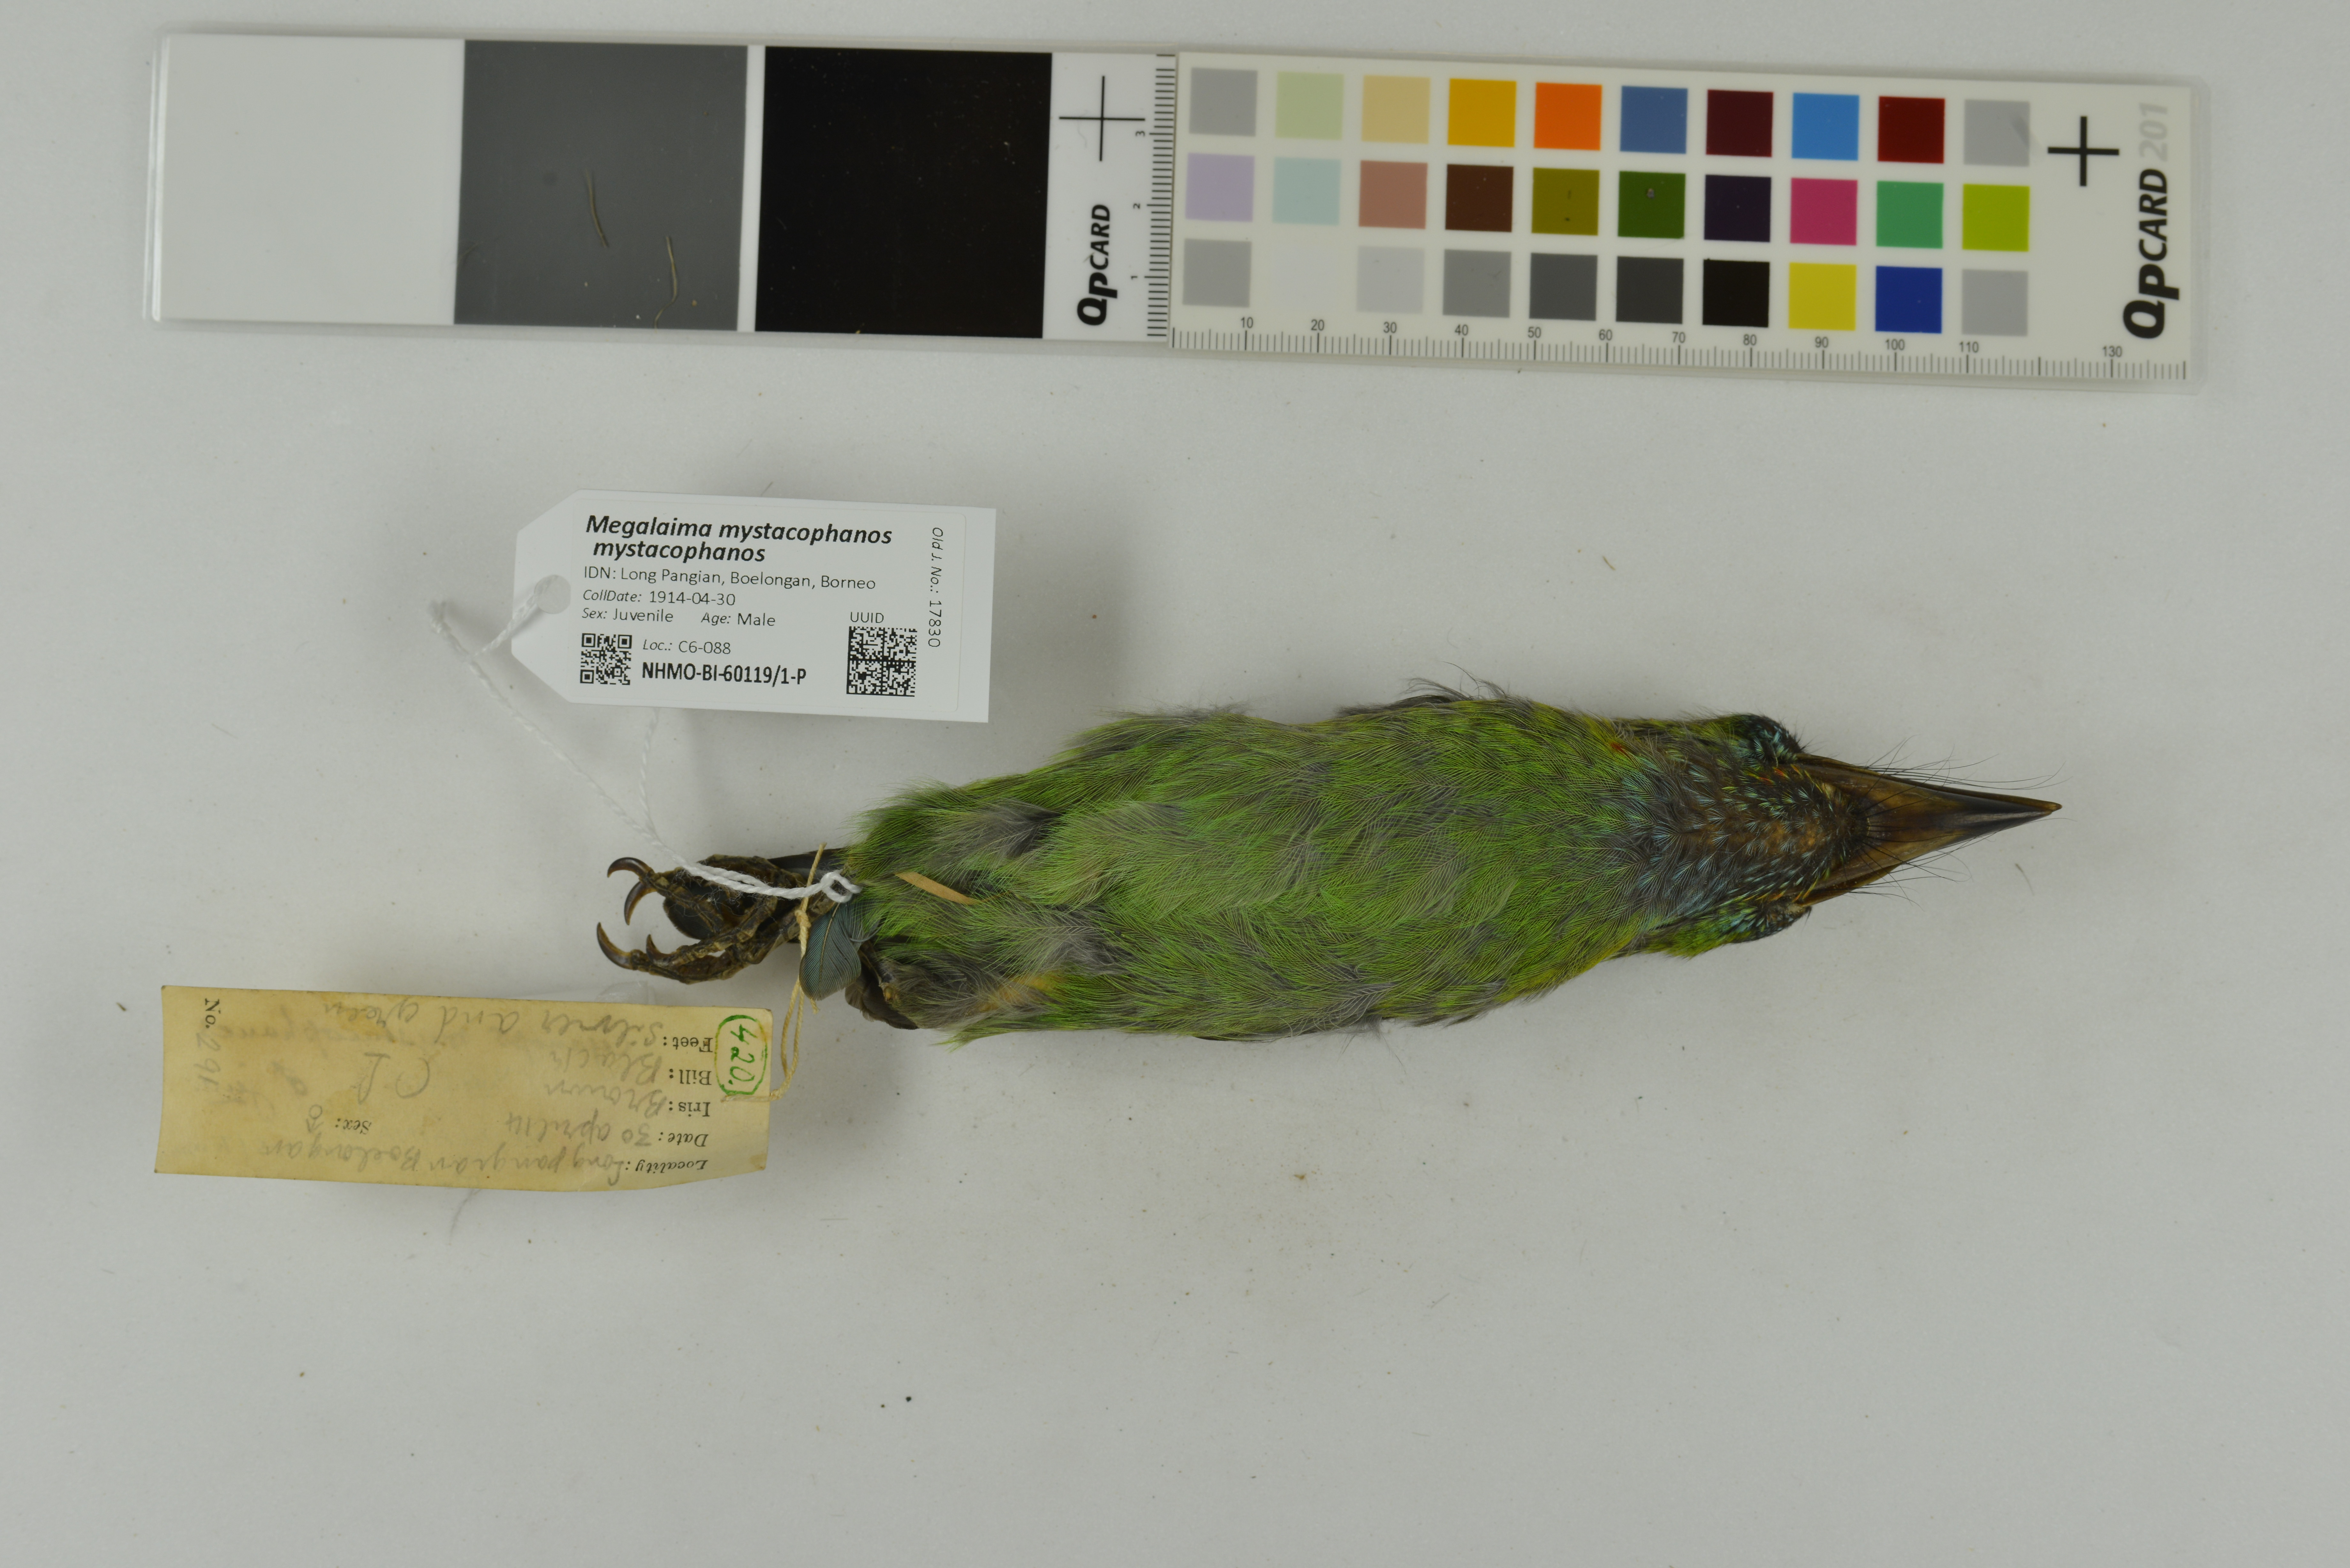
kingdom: Animalia
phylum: Chordata
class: Aves
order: Piciformes
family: Megalaimidae
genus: Psilopogon
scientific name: Psilopogon mystacophanos
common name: Red-throated barbet
